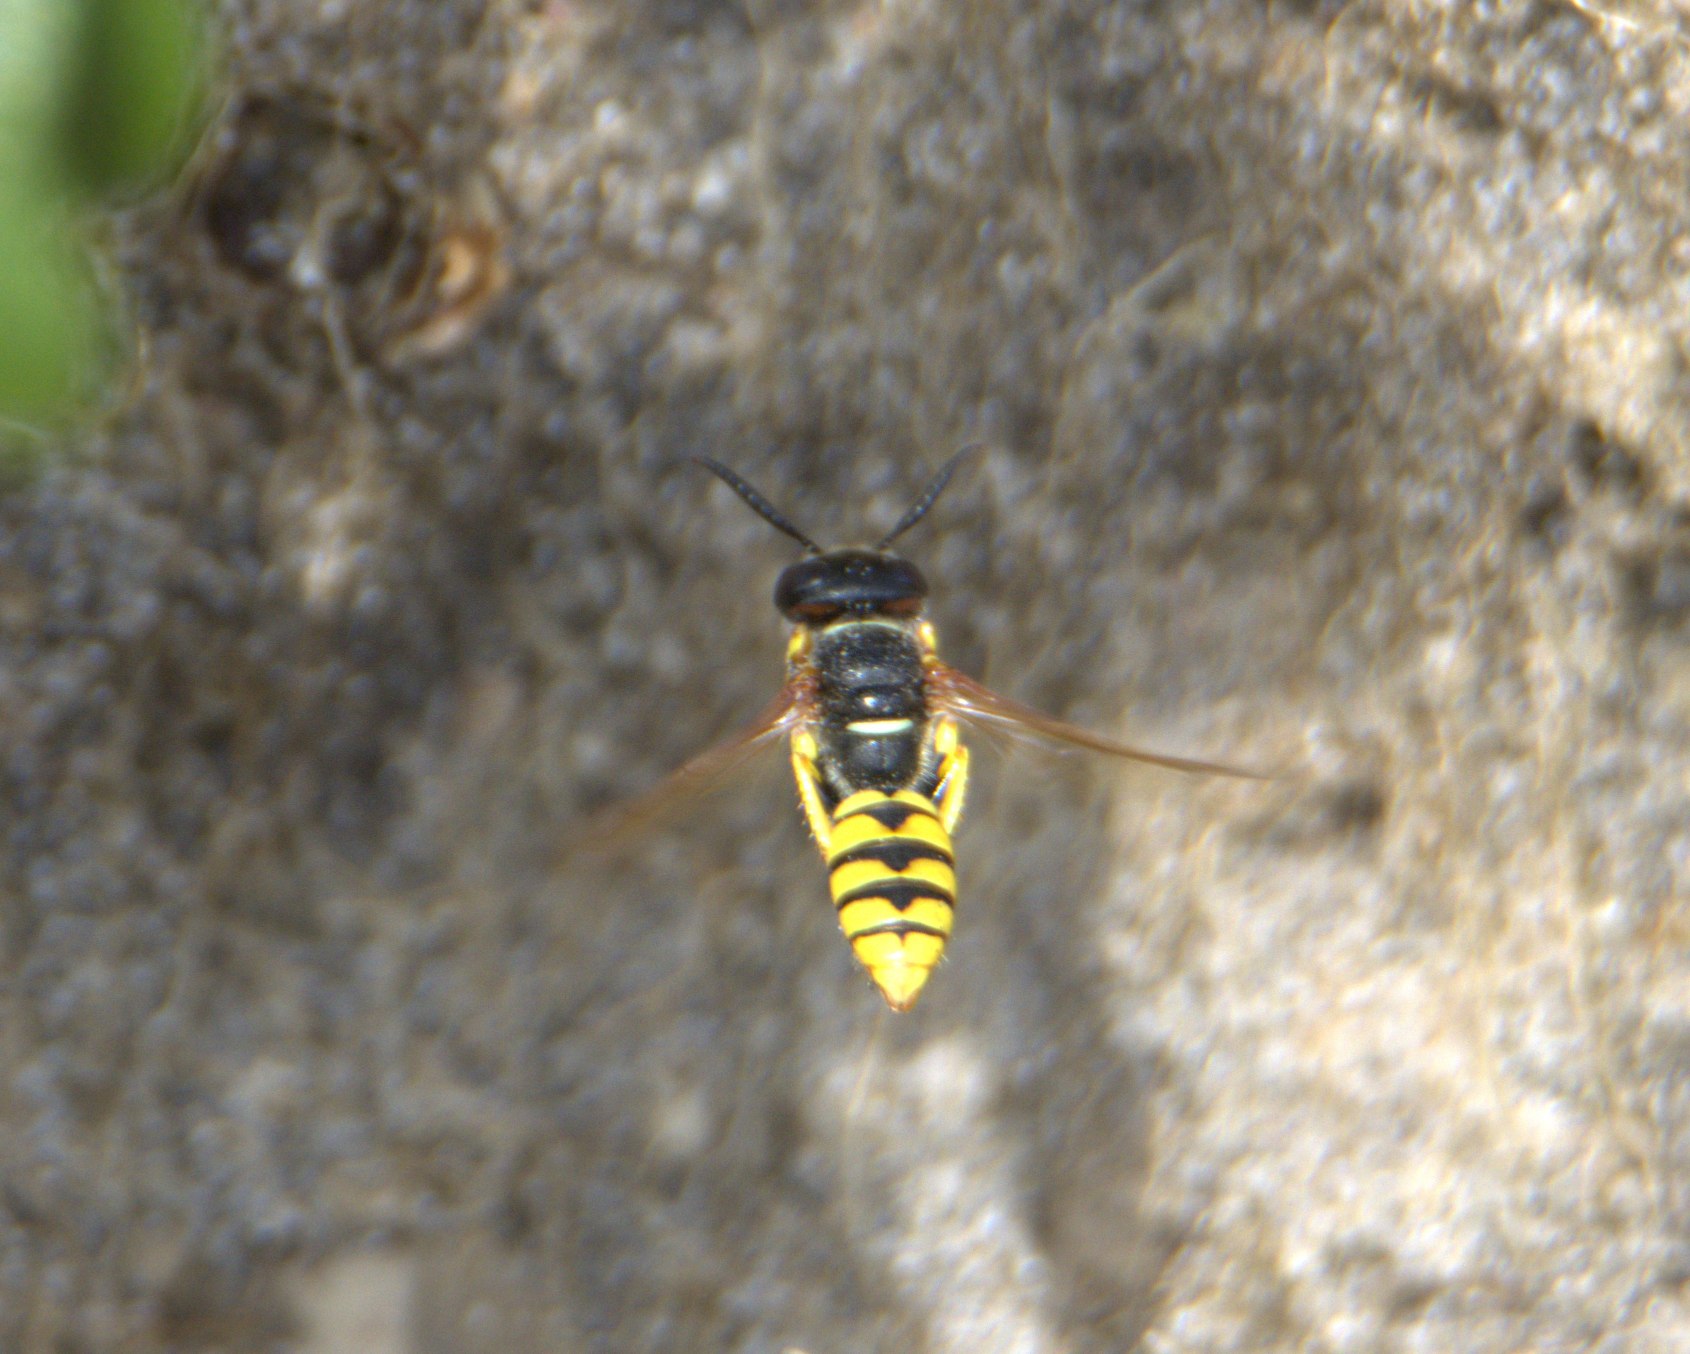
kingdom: Animalia
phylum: Arthropoda
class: Insecta
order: Hymenoptera
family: Crabronidae
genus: Philanthus
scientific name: Philanthus triangulum
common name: Biulv
